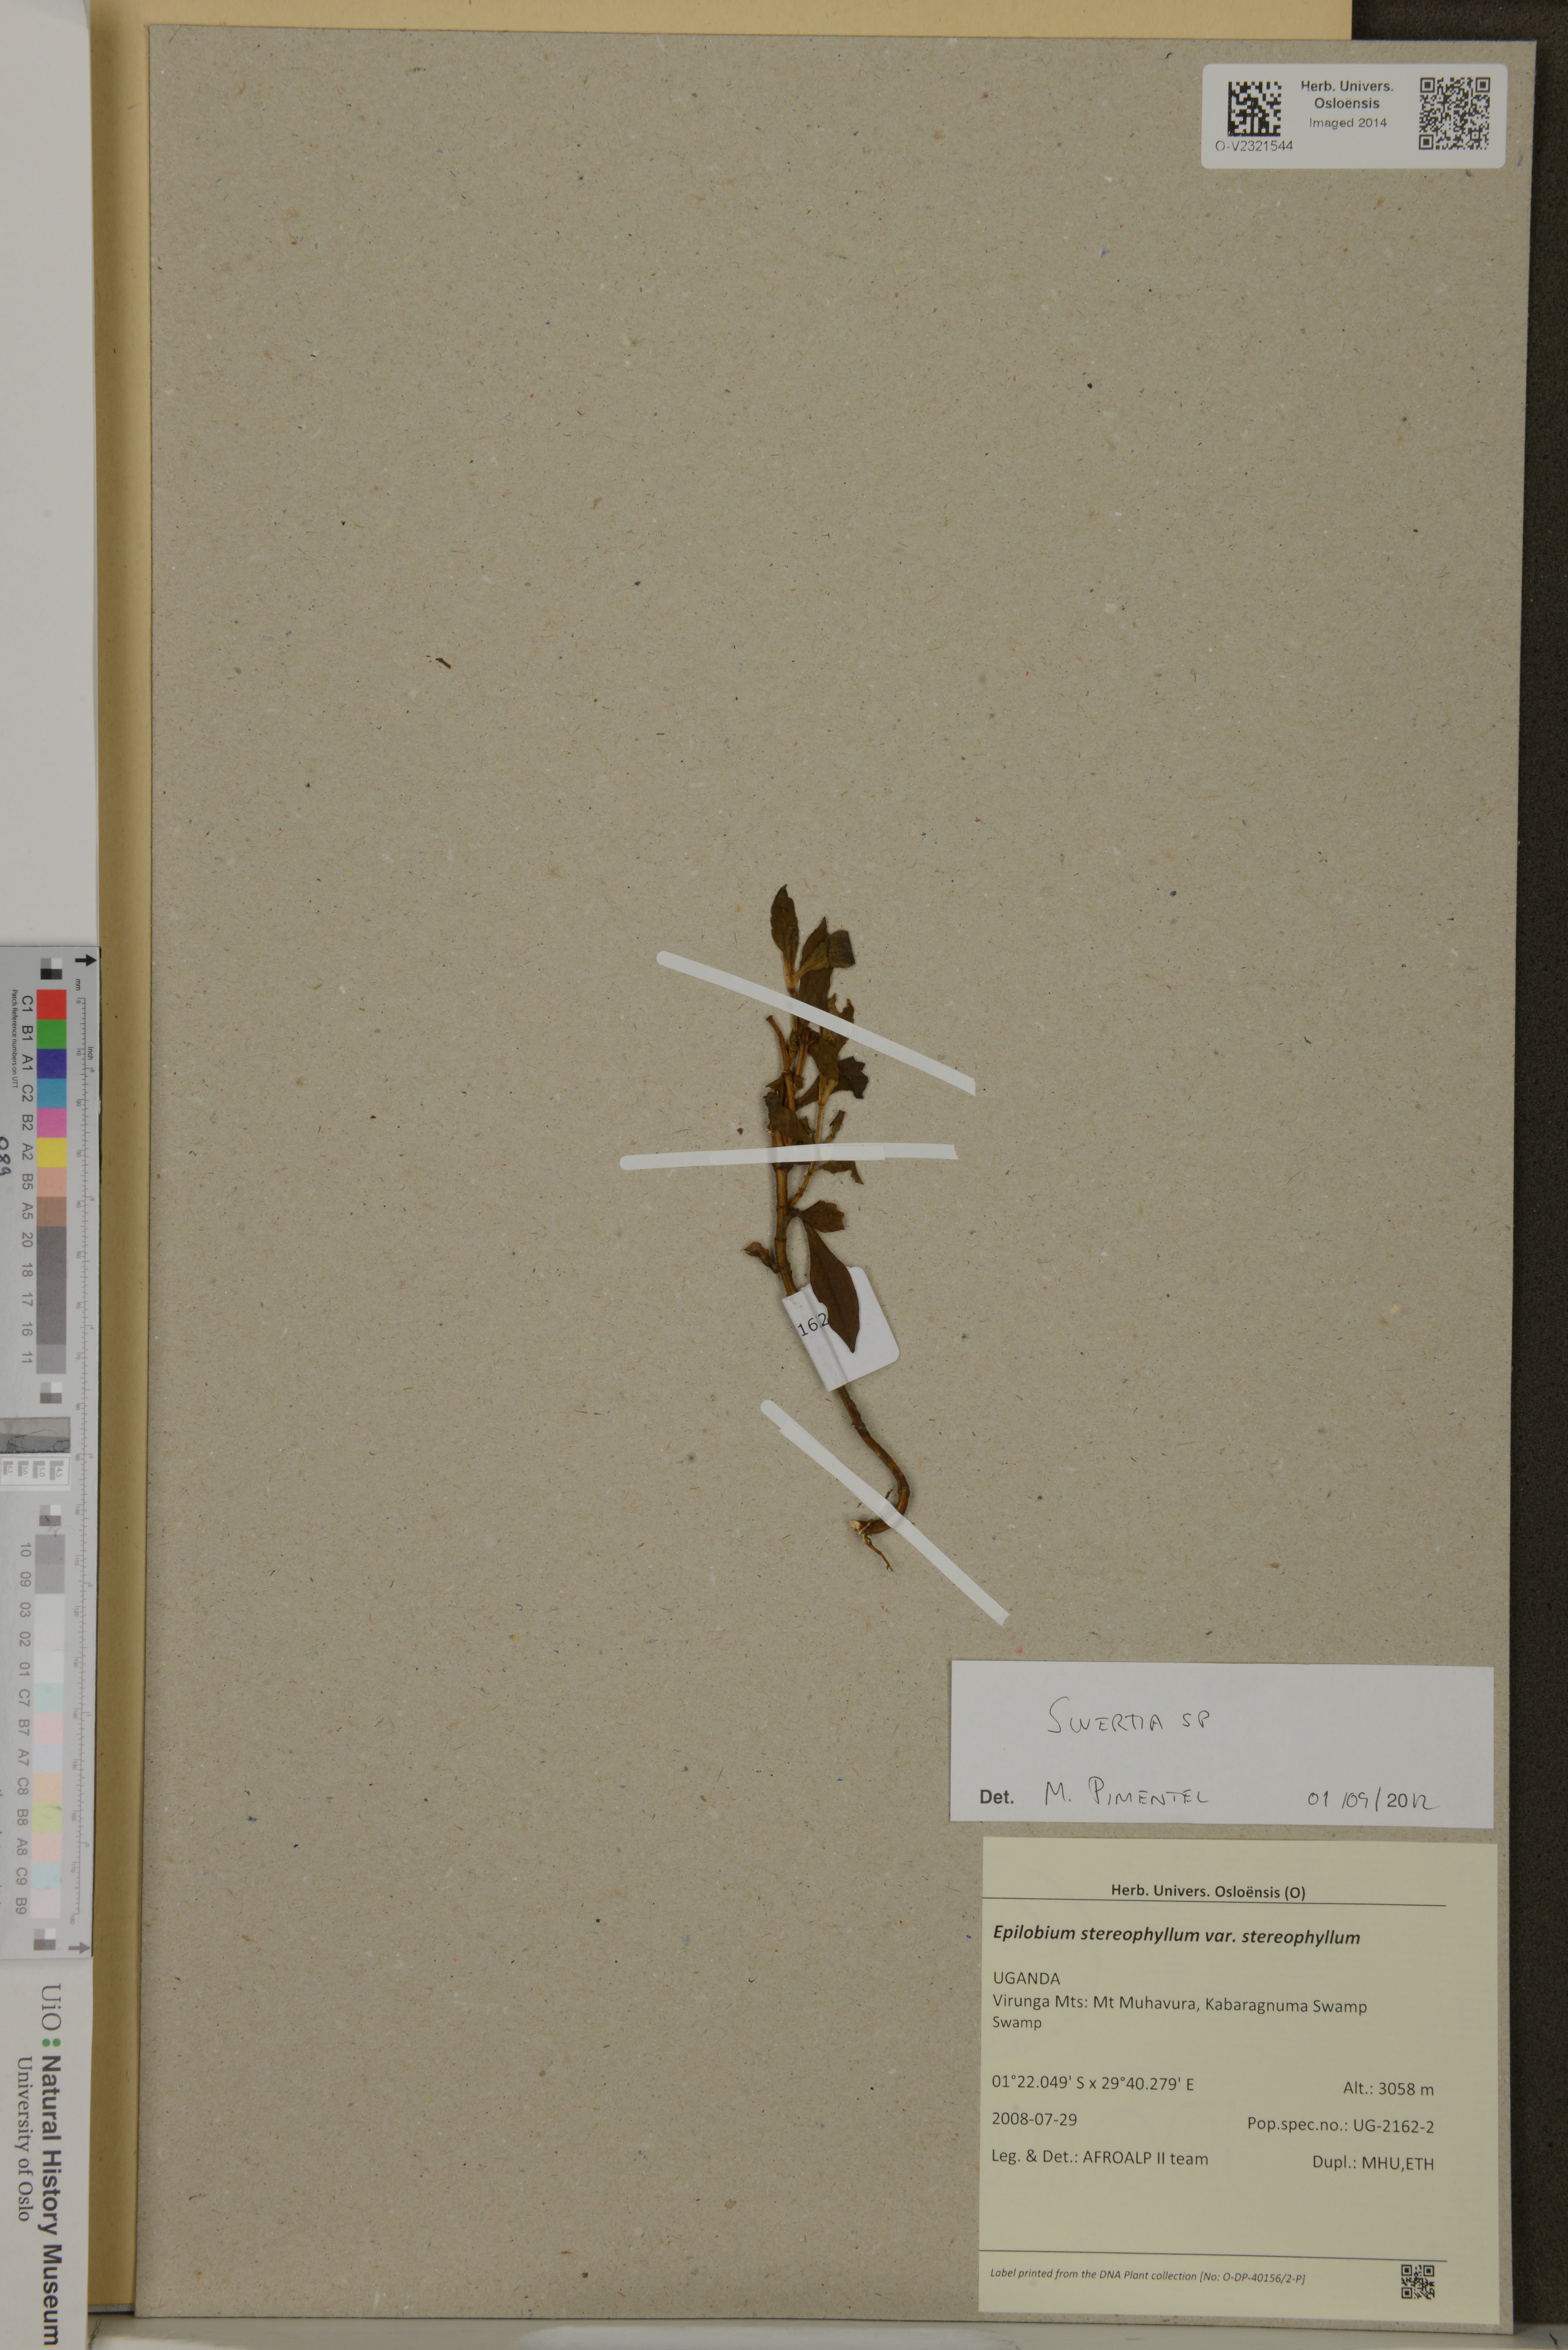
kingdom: Plantae
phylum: Tracheophyta
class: Magnoliopsida
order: Myrtales
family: Onagraceae
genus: Epilobium
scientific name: Epilobium stereophyllum
